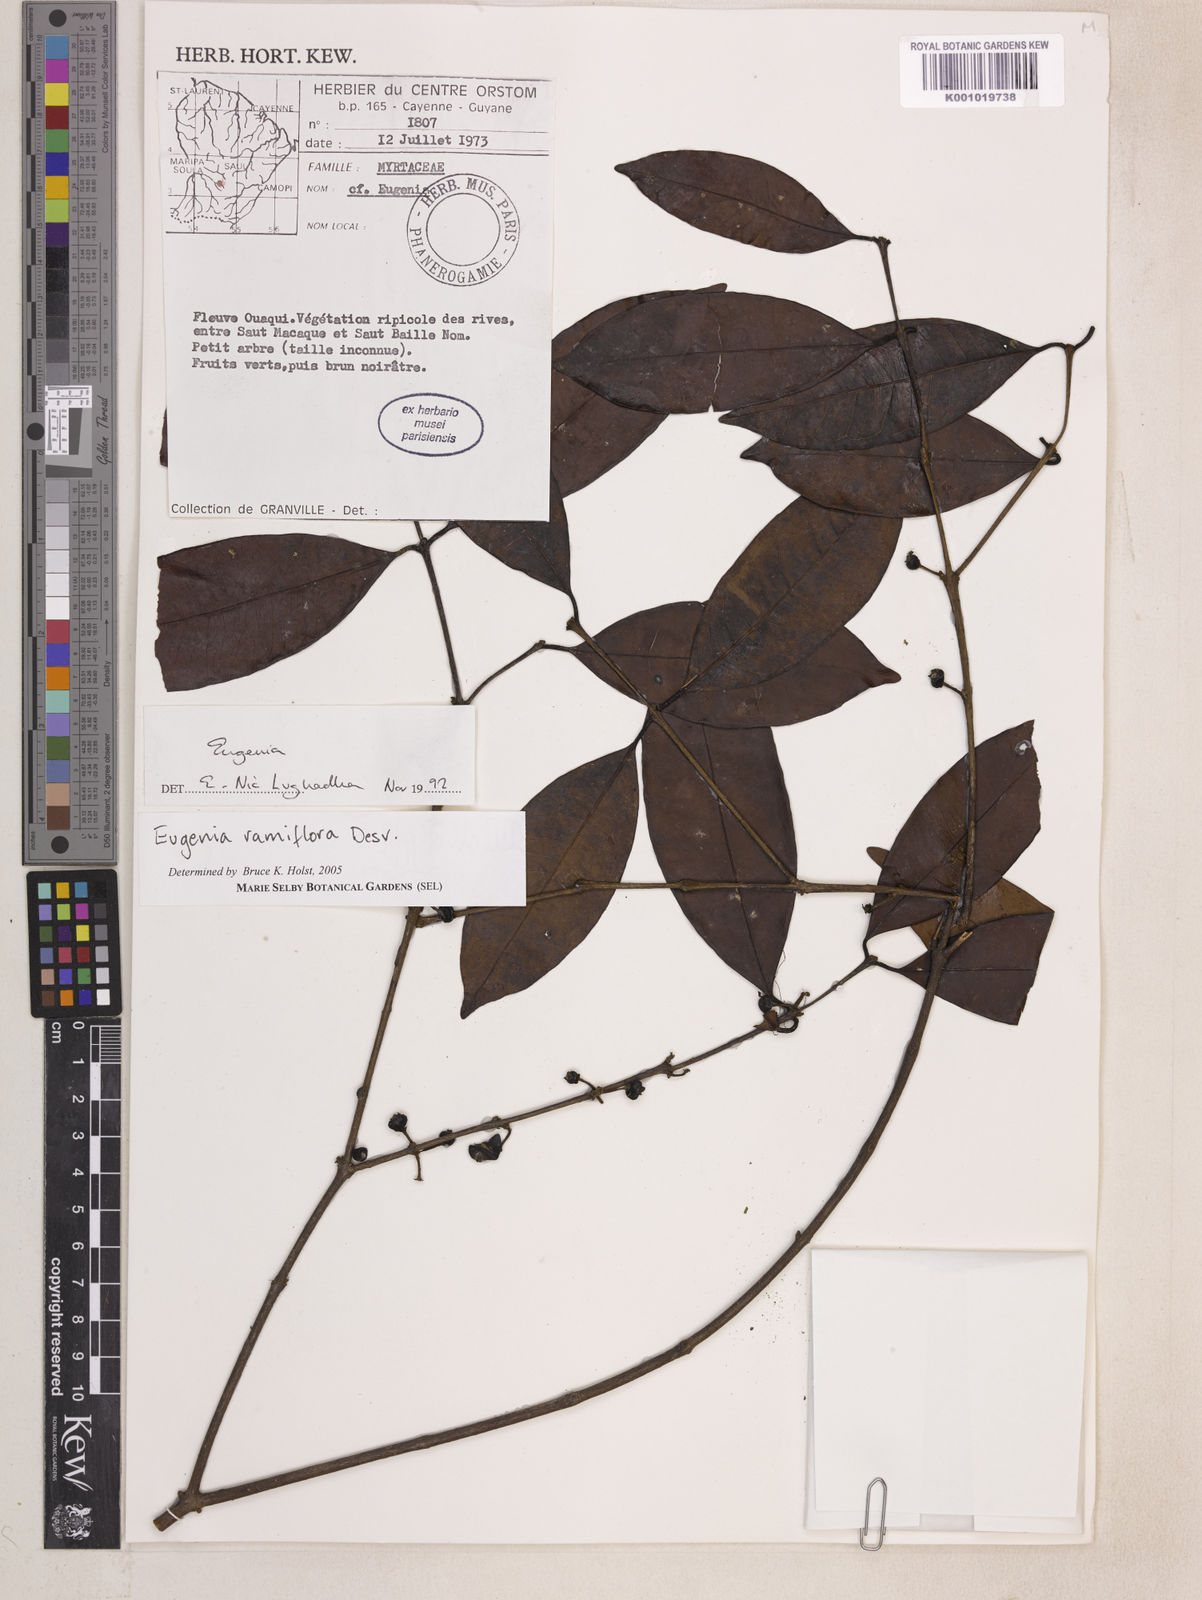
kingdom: Plantae
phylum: Tracheophyta
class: Magnoliopsida
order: Myrtales
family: Myrtaceae
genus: Eugenia
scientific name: Eugenia ramiflora
